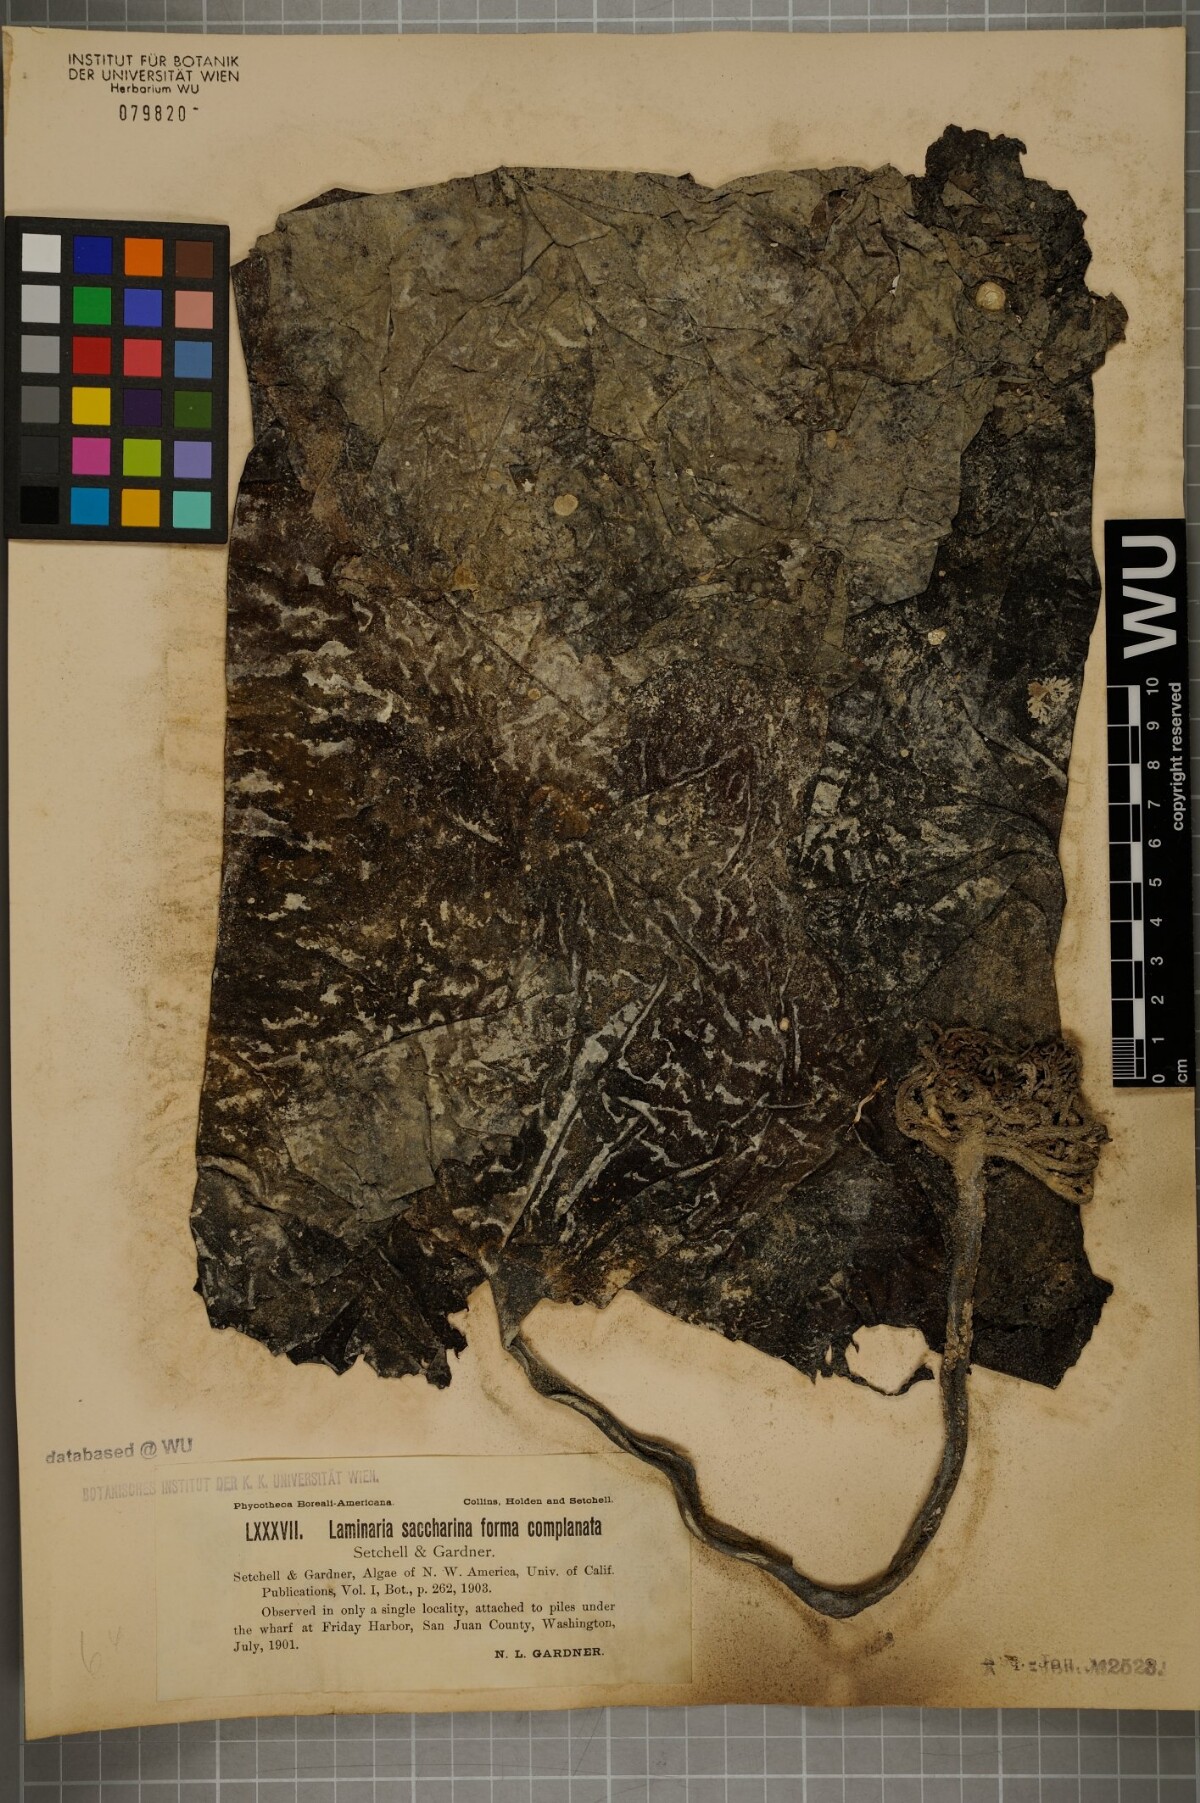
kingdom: Chromista
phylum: Ochrophyta
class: Phaeophyceae
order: Laminariales
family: Laminariaceae
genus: Saccharina
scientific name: Saccharina latissima
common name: Poor man's weather glass
